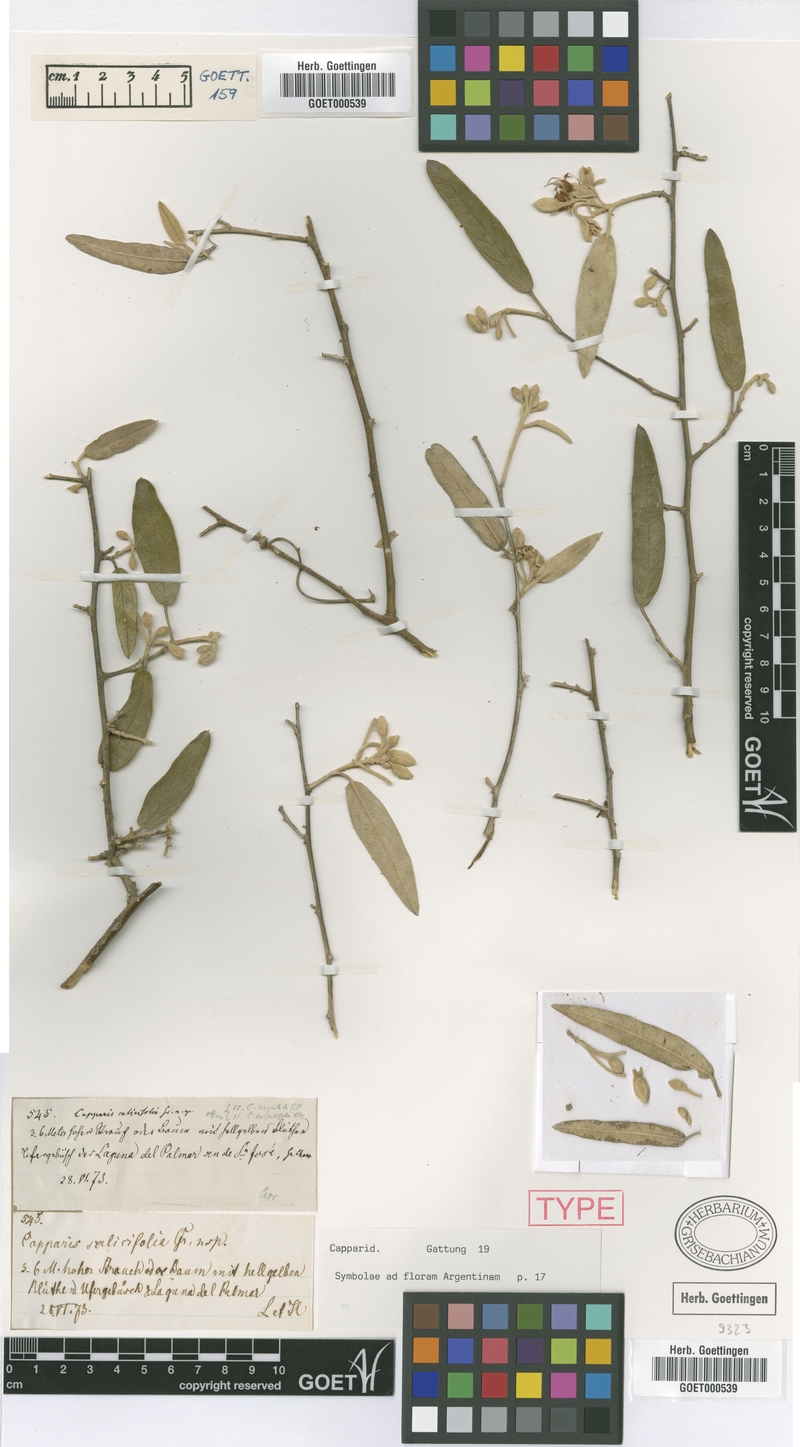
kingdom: Plantae
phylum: Tracheophyta
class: Magnoliopsida
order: Brassicales
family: Capparaceae
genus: Sarcotoxicum
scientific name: Sarcotoxicum salicifolium
